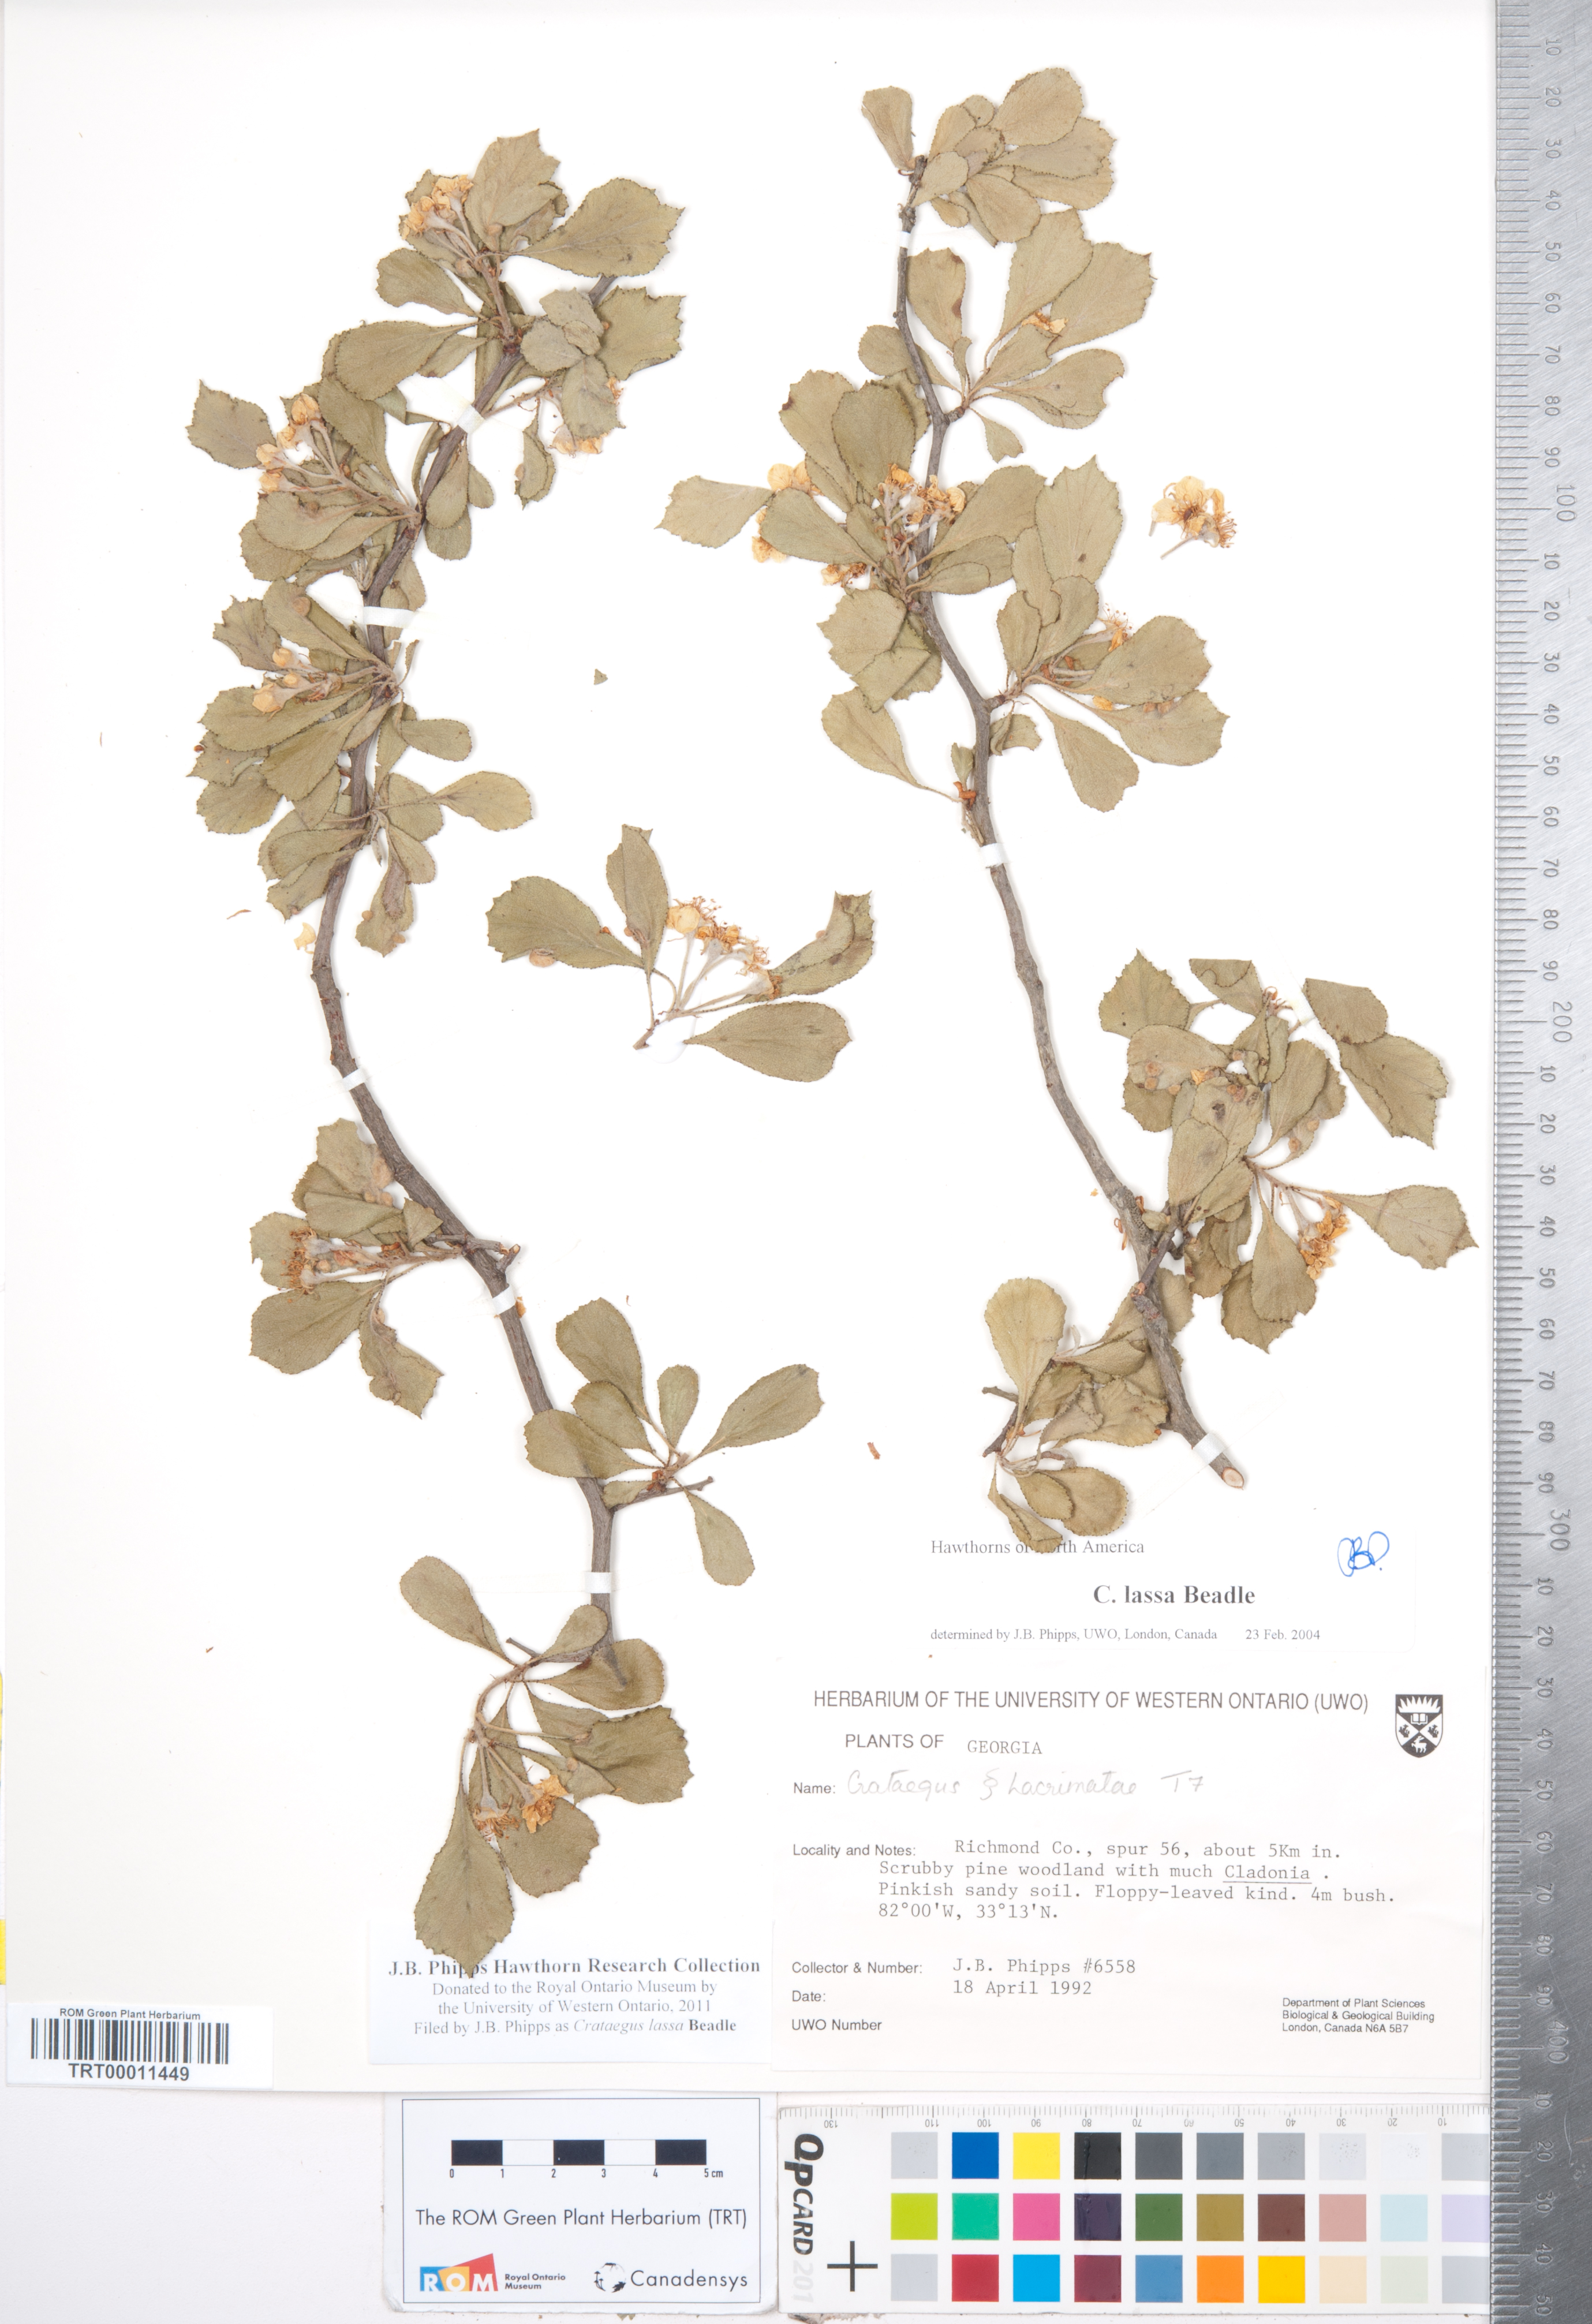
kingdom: Plantae
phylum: Tracheophyta
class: Magnoliopsida
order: Rosales
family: Rosaceae
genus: Crataegus
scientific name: Crataegus lassa
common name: Florida hawthorn
